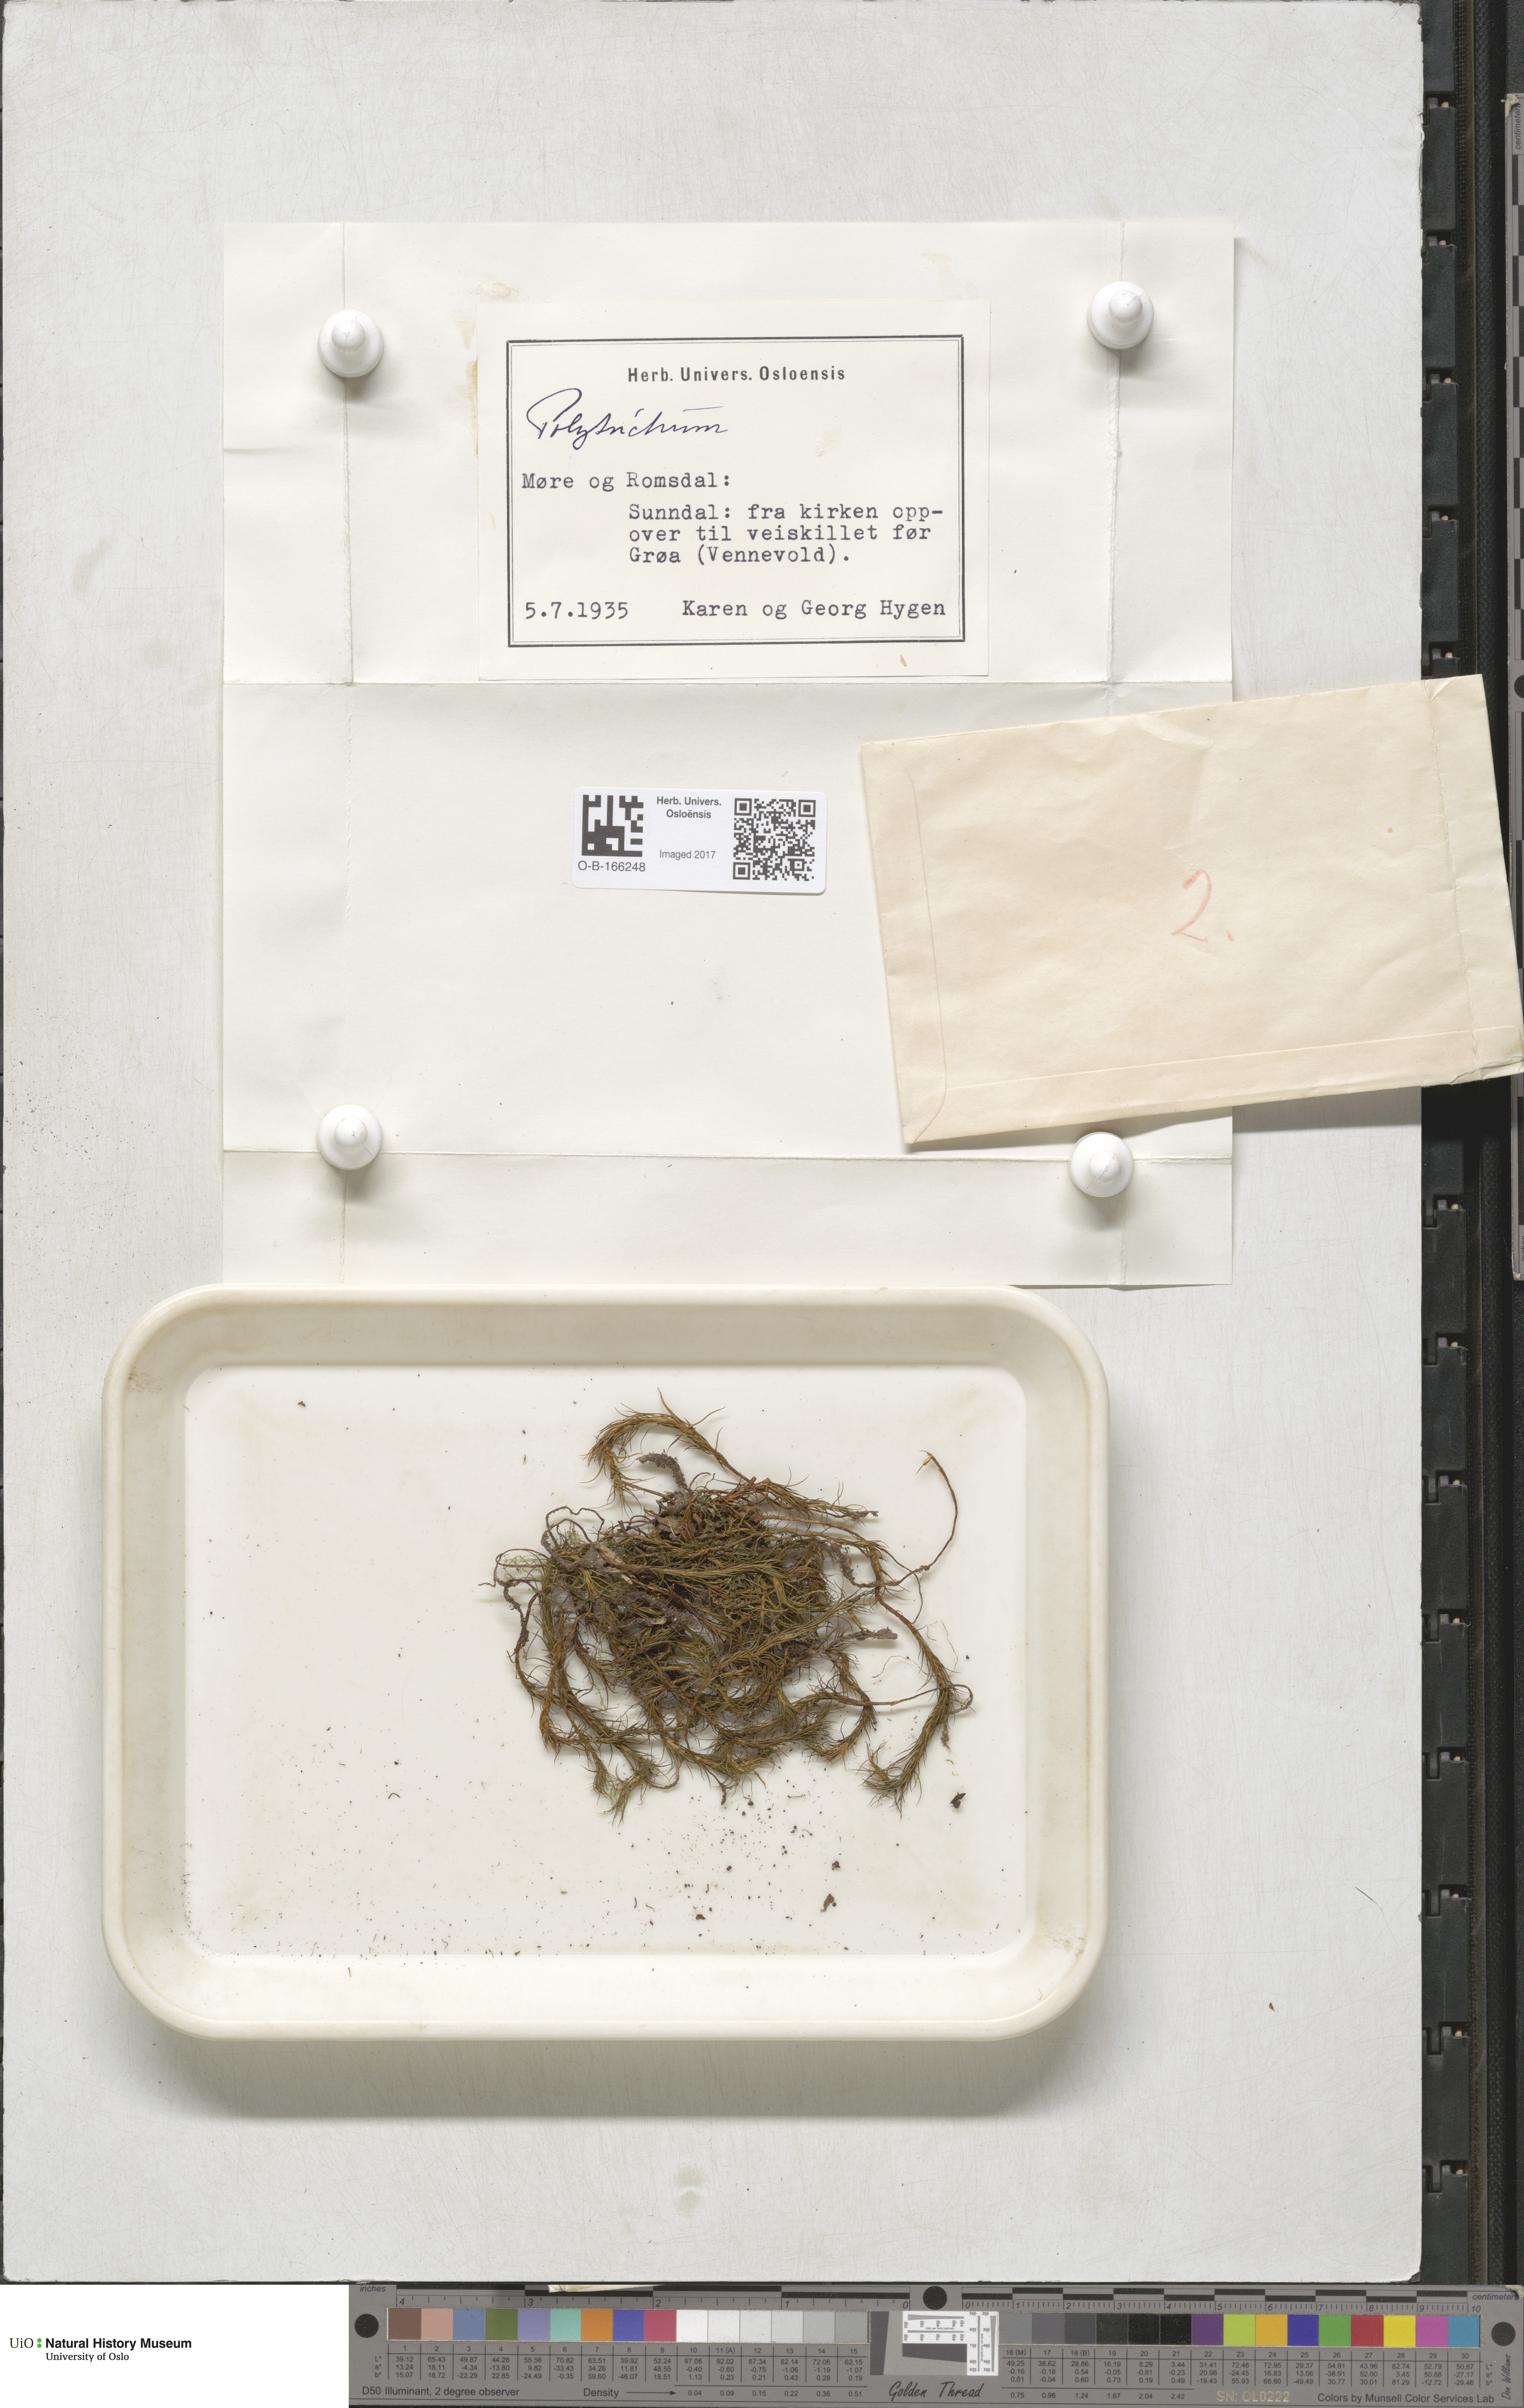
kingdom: Plantae
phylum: Bryophyta
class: Polytrichopsida
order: Polytrichales
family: Polytrichaceae
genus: Polytrichum
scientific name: Polytrichum
